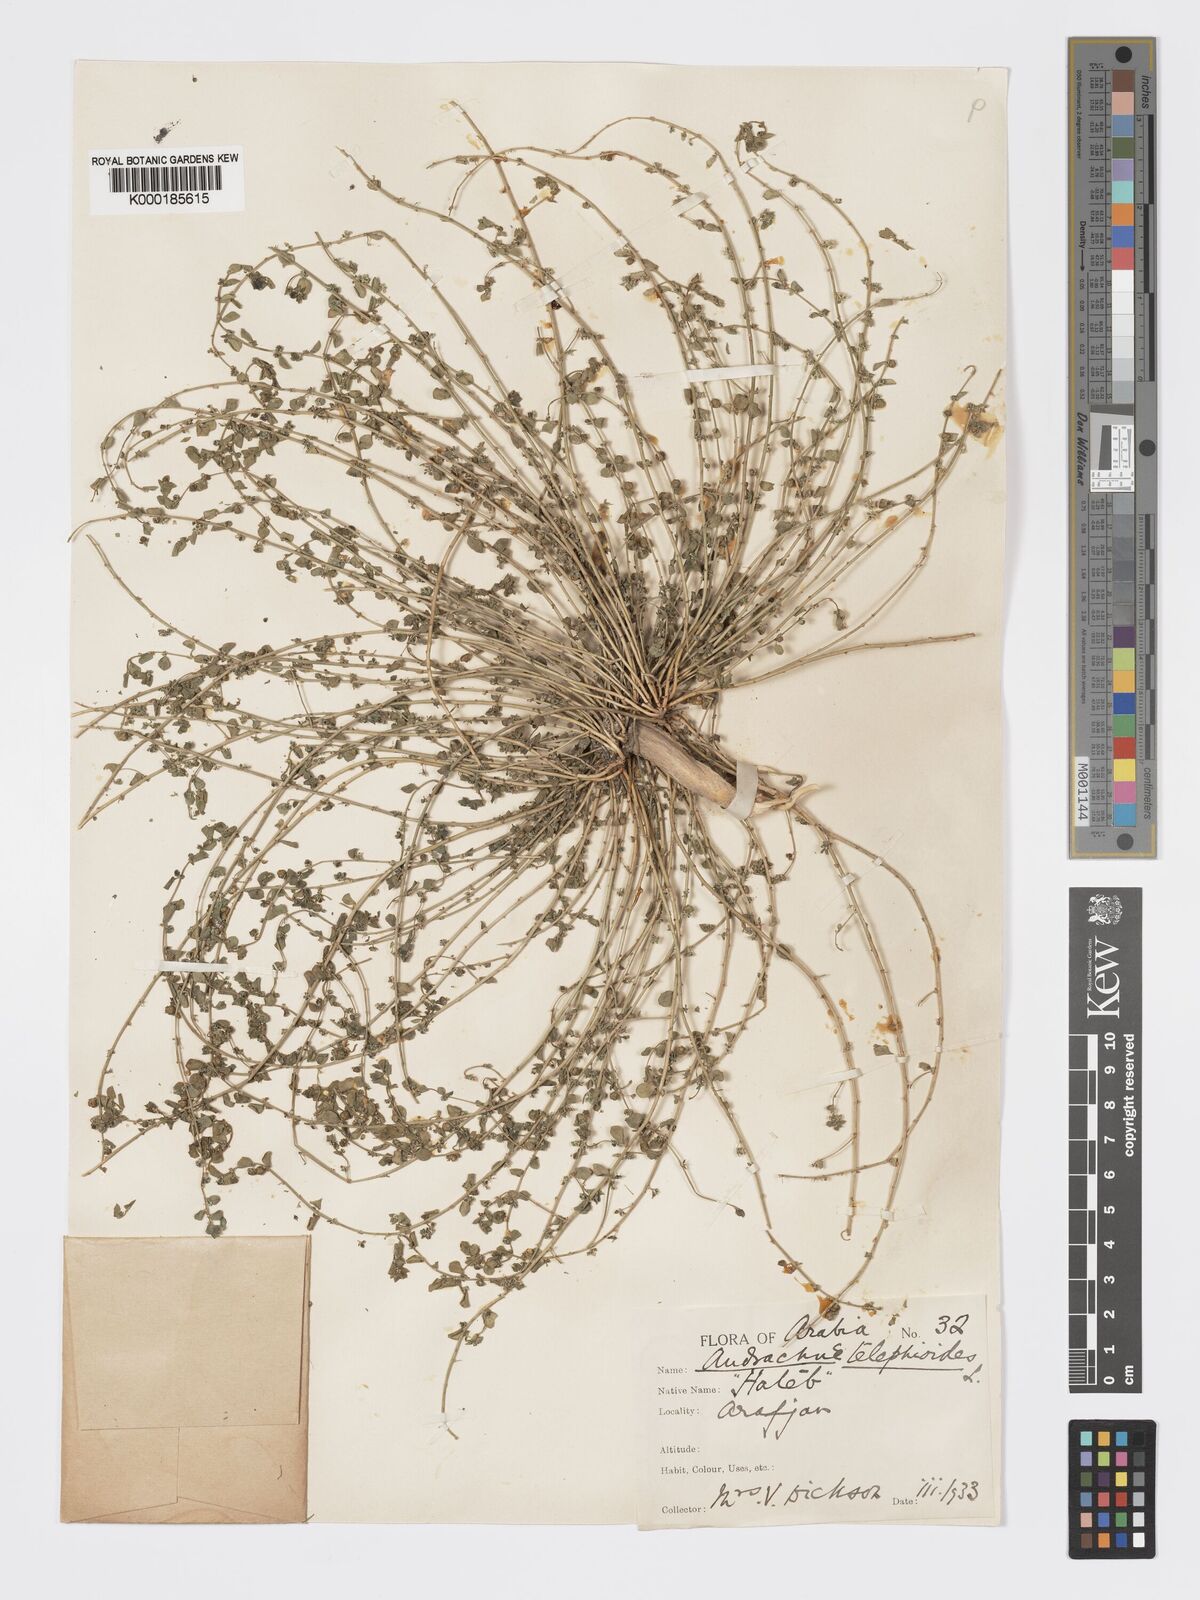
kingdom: Plantae
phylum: Tracheophyta
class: Magnoliopsida
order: Malpighiales
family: Phyllanthaceae
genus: Andrachne
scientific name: Andrachne telephioides
